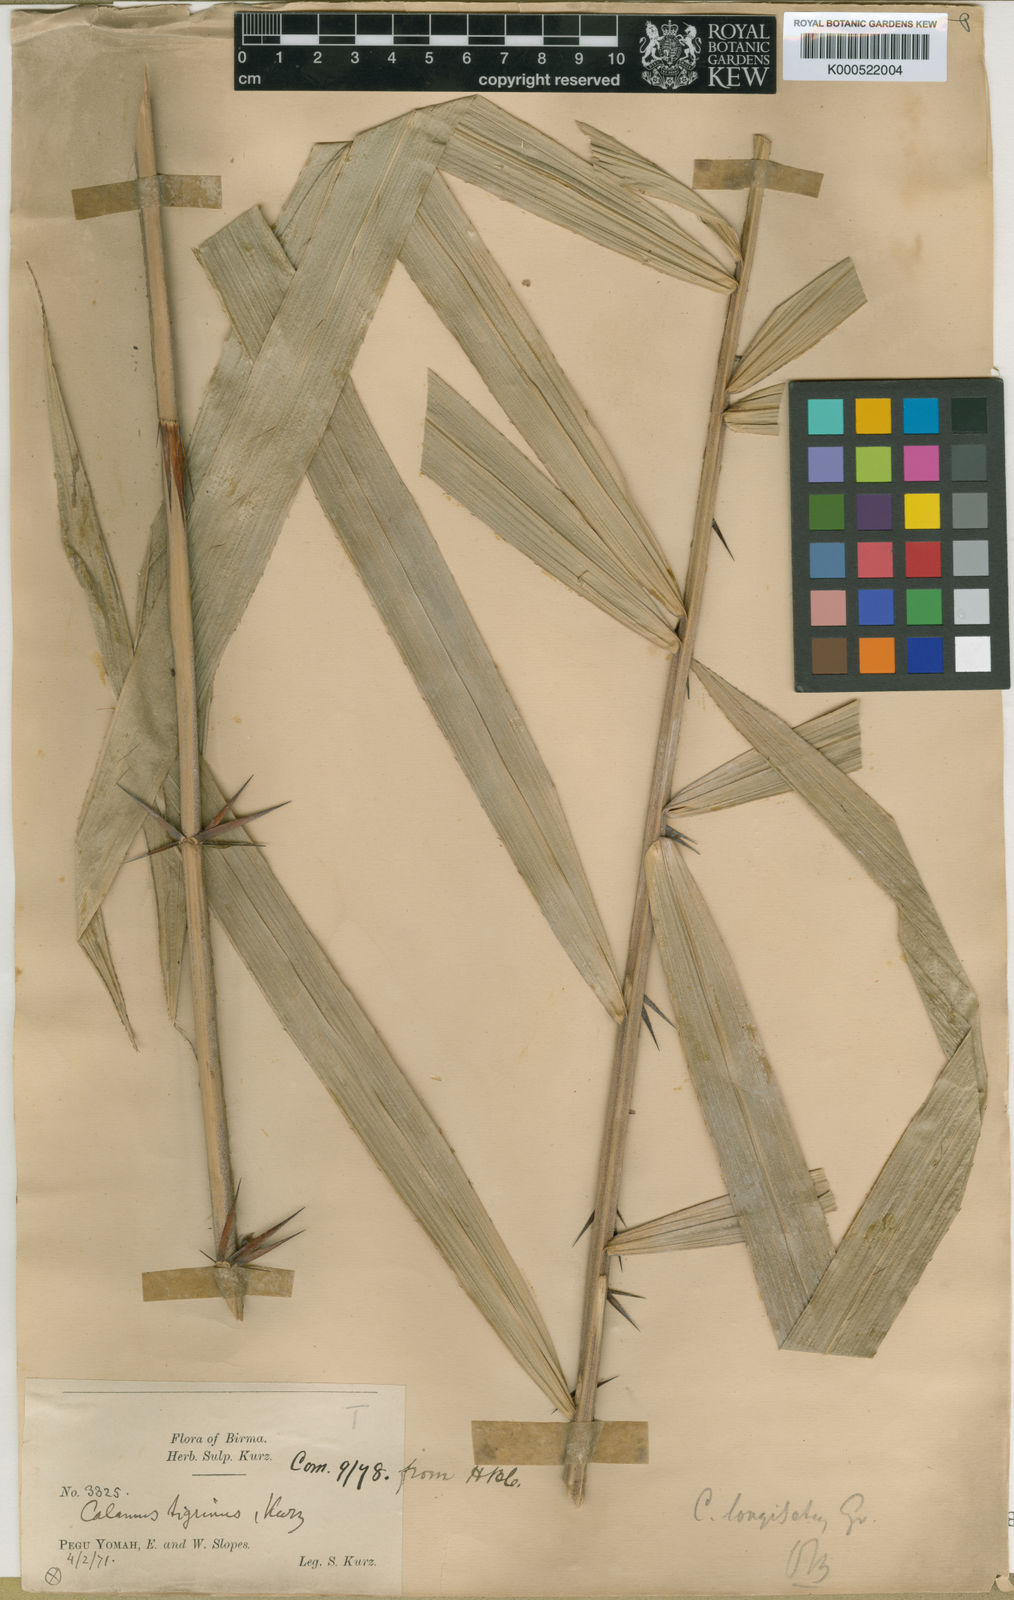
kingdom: Plantae
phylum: Tracheophyta
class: Liliopsida
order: Arecales
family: Arecaceae
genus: Calamus
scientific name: Calamus longisetus
